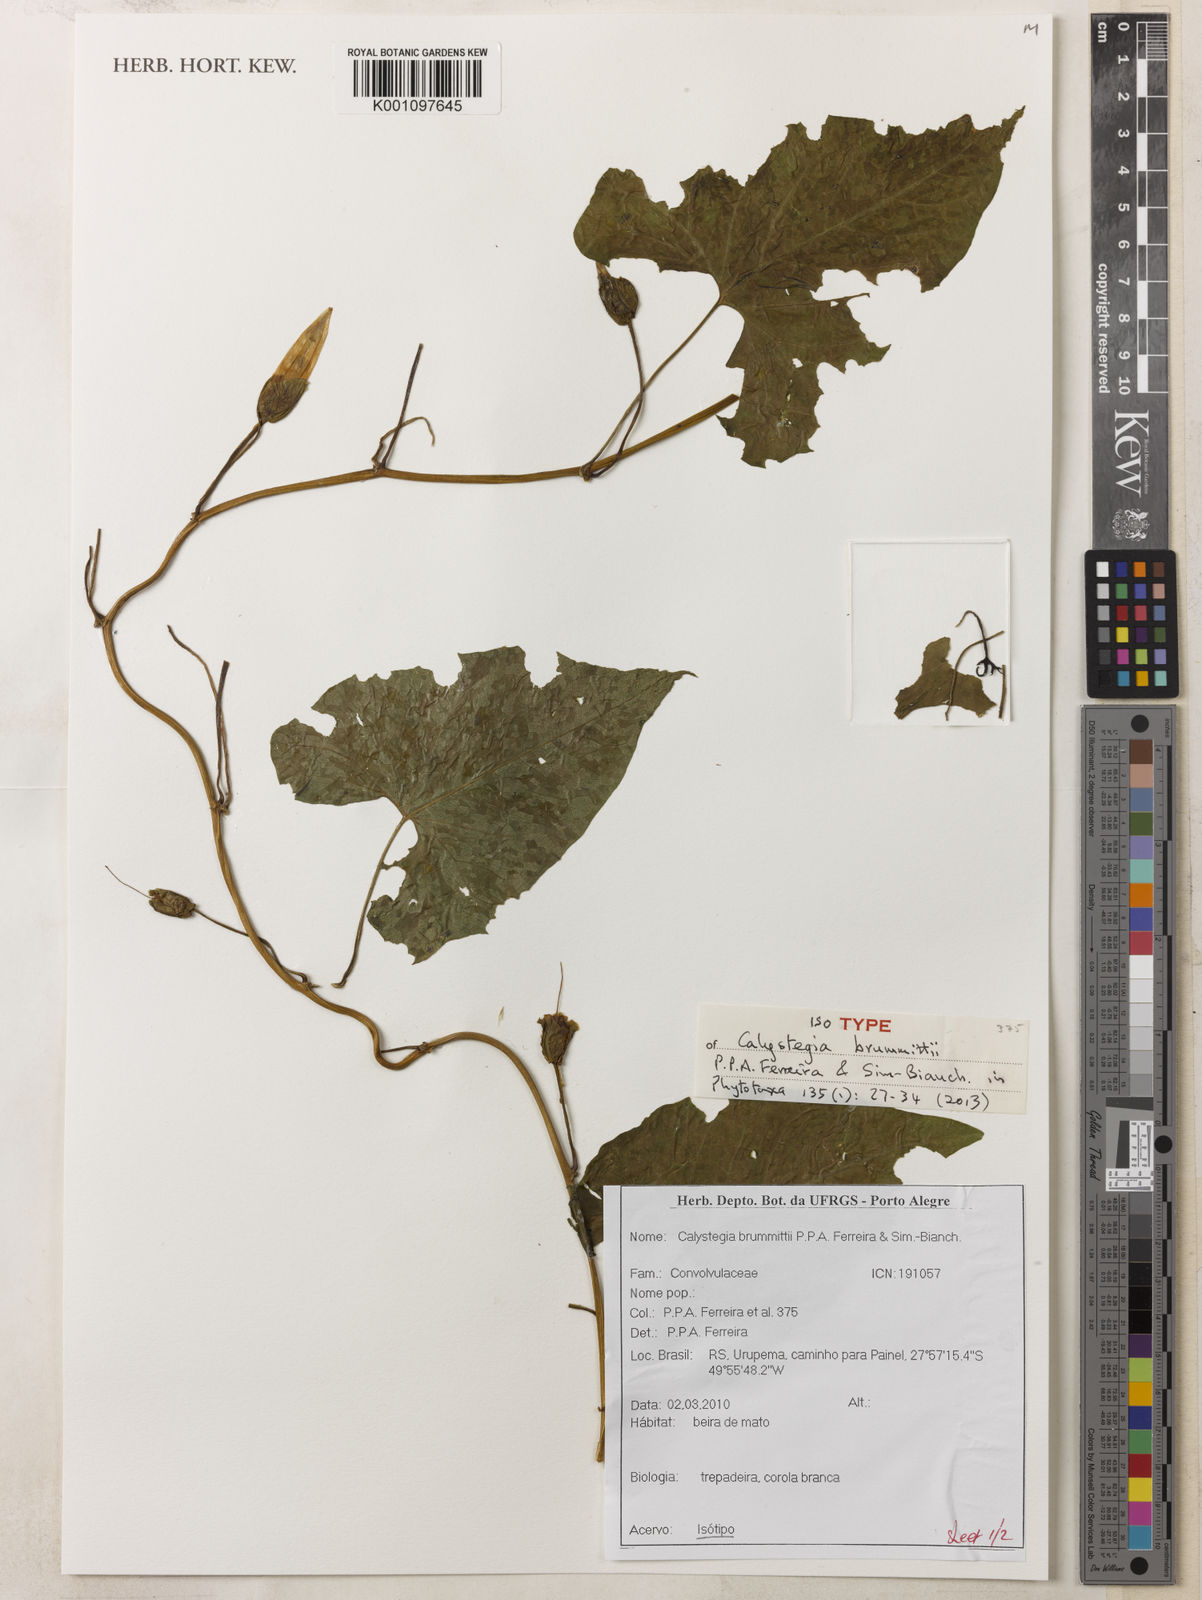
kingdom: Plantae
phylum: Tracheophyta
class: Magnoliopsida
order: Solanales
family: Convolvulaceae
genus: Calystegia
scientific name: Calystegia brummittii
